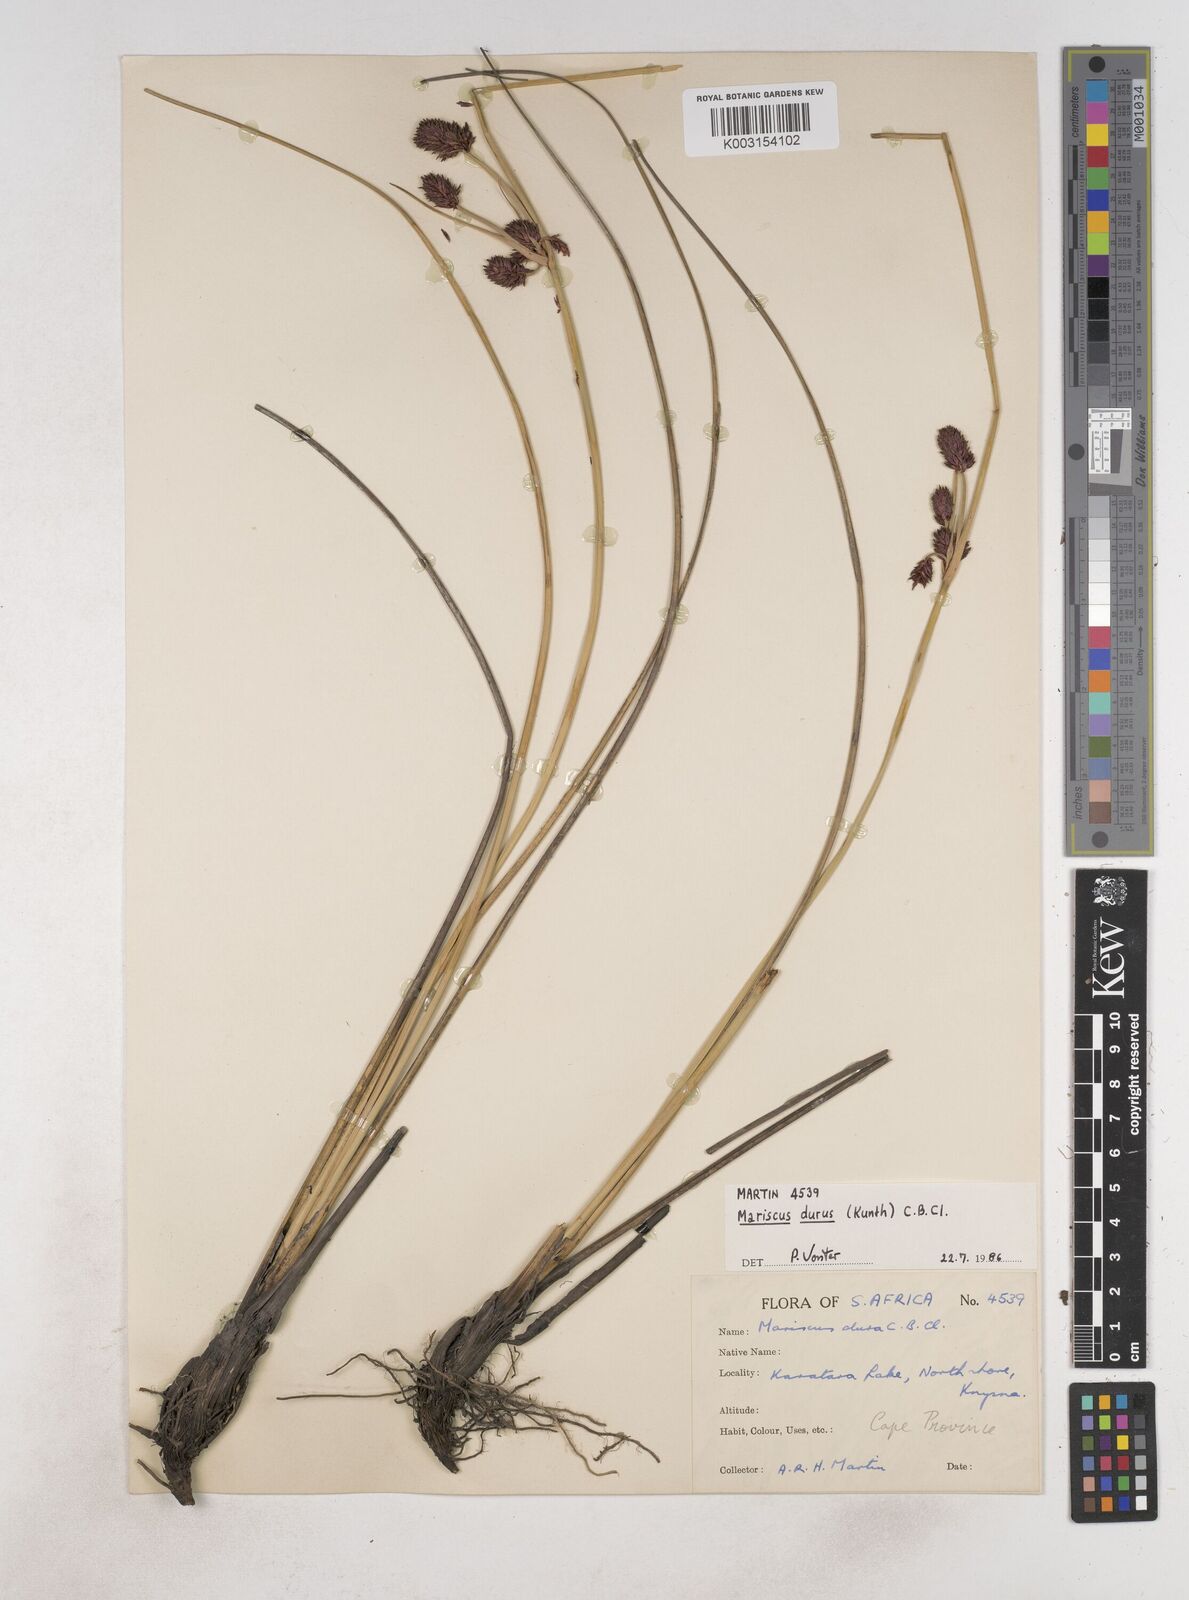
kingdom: Plantae
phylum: Tracheophyta
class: Liliopsida
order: Poales
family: Cyperaceae
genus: Cyperus
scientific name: Cyperus durus
